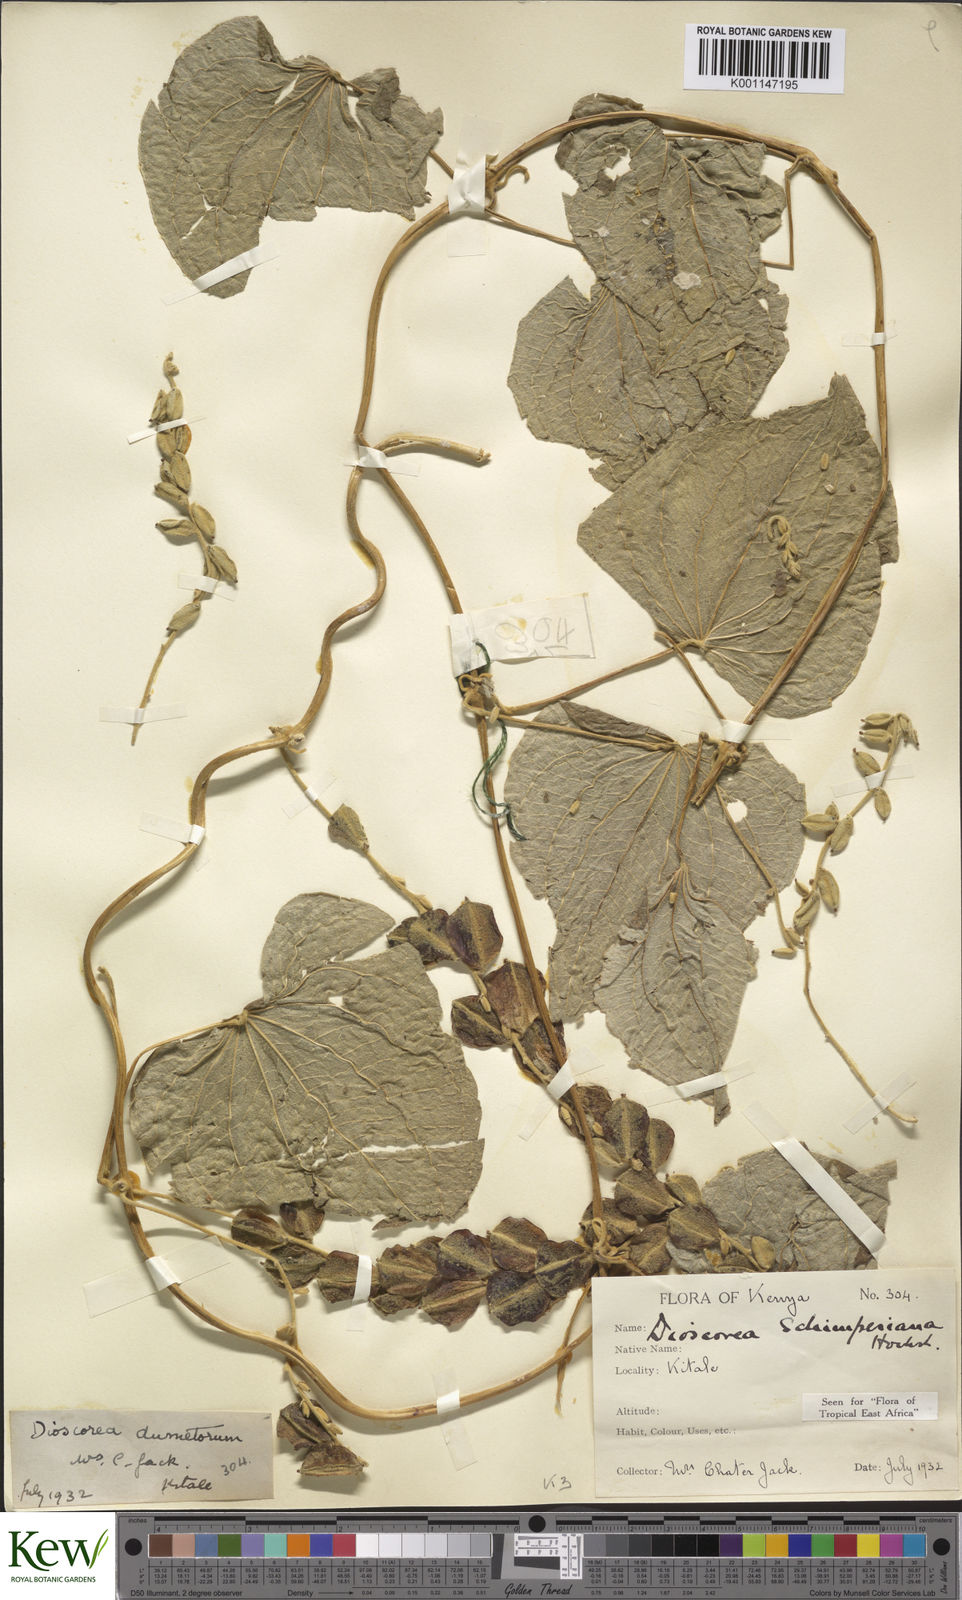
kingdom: Plantae
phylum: Tracheophyta
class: Liliopsida
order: Dioscoreales
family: Dioscoreaceae
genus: Dioscorea
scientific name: Dioscorea schimperiana
